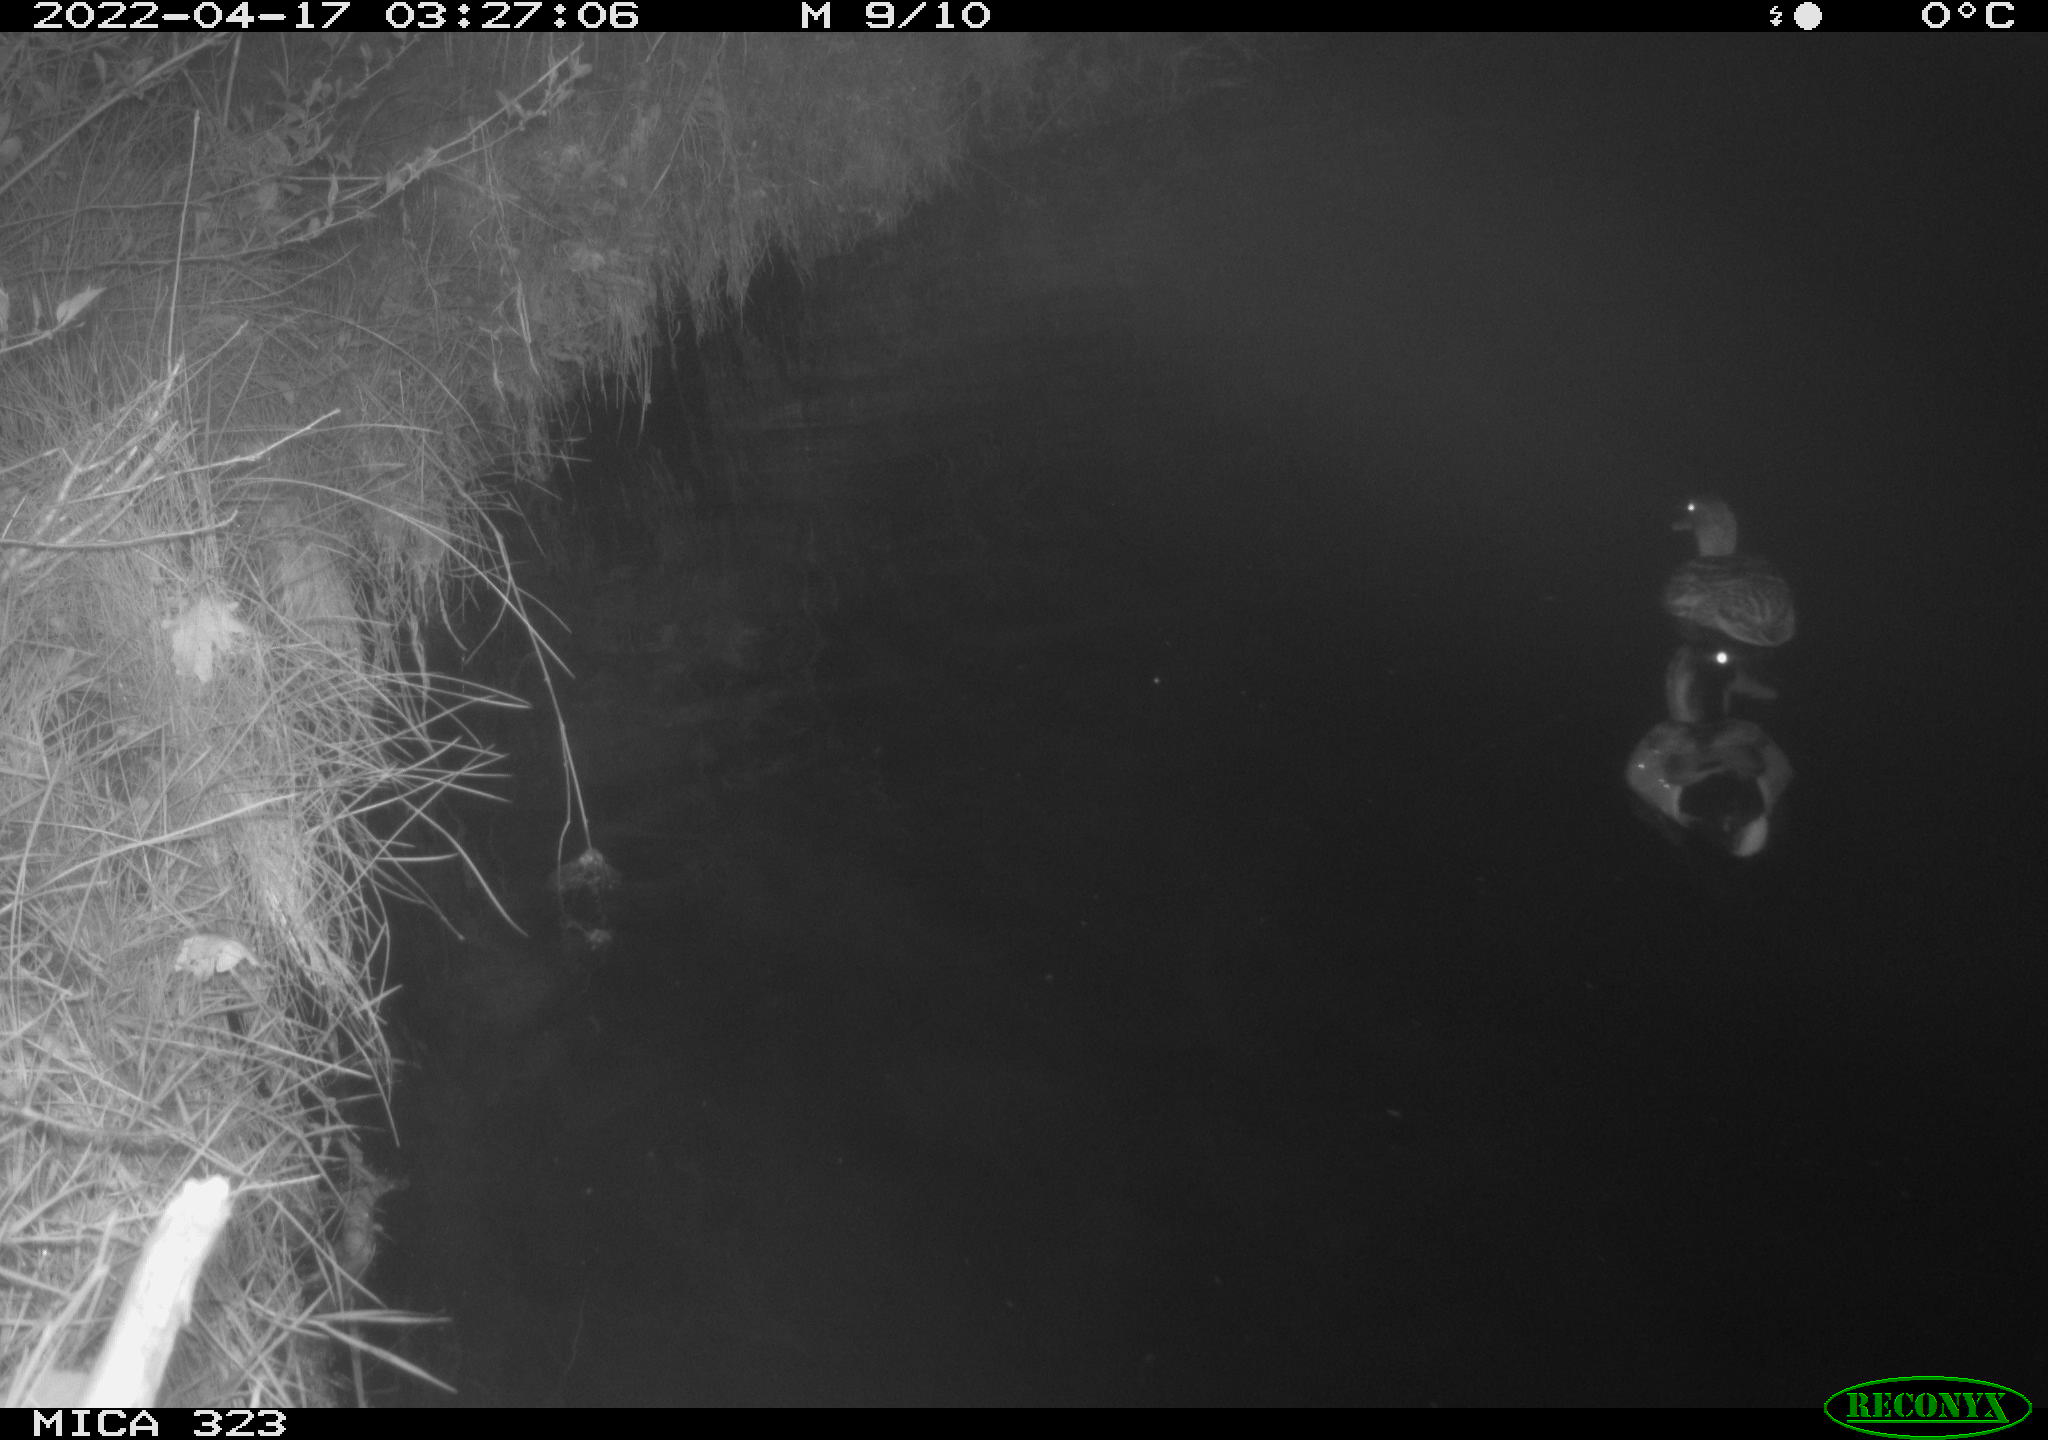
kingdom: Animalia
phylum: Chordata
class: Aves
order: Anseriformes
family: Anatidae
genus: Anas
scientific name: Anas platyrhynchos
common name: Mallard
